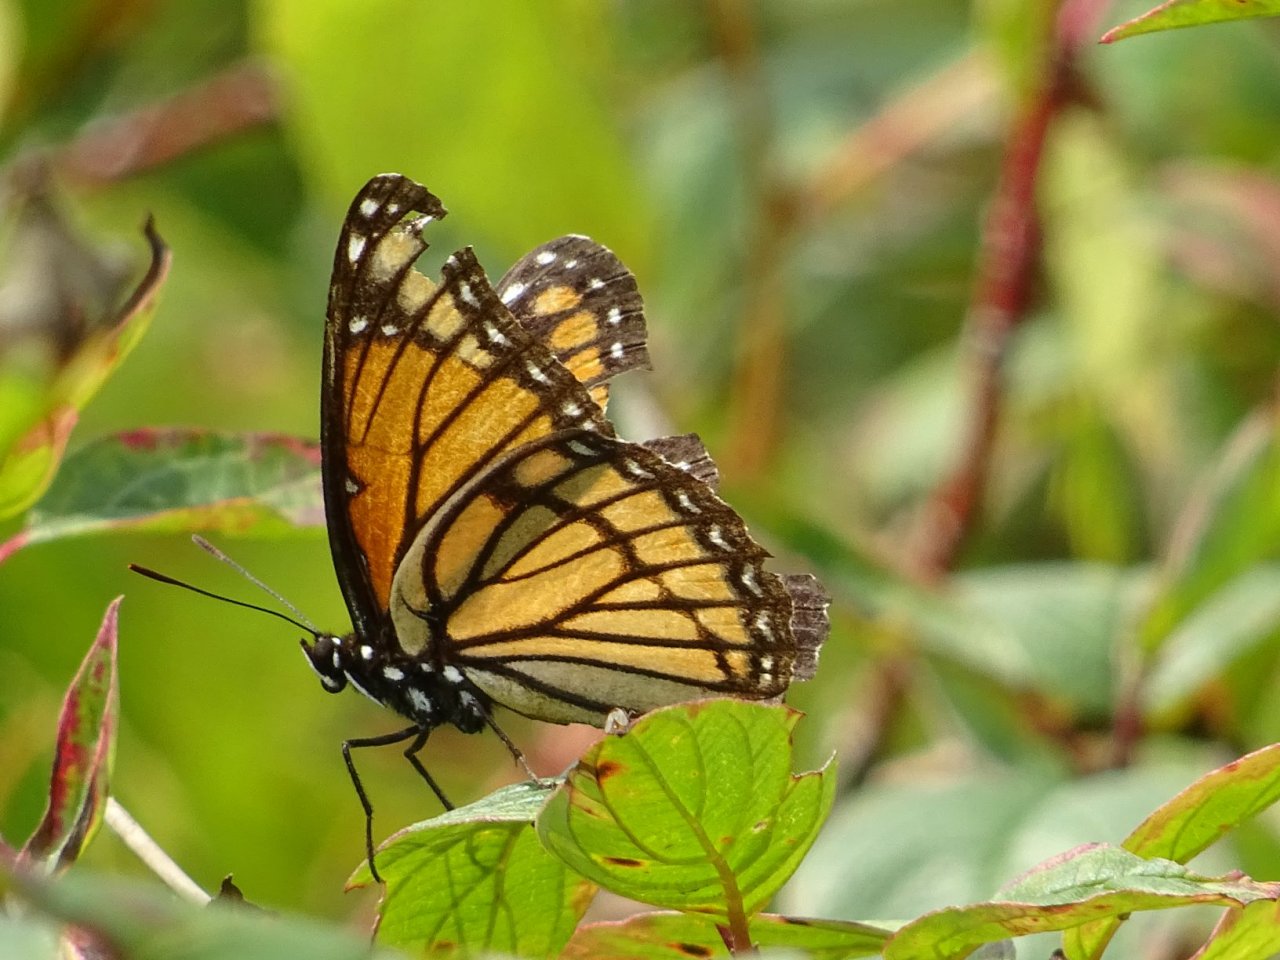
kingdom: Animalia
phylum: Arthropoda
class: Insecta
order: Lepidoptera
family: Nymphalidae
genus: Limenitis
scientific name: Limenitis archippus
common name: Viceroy
